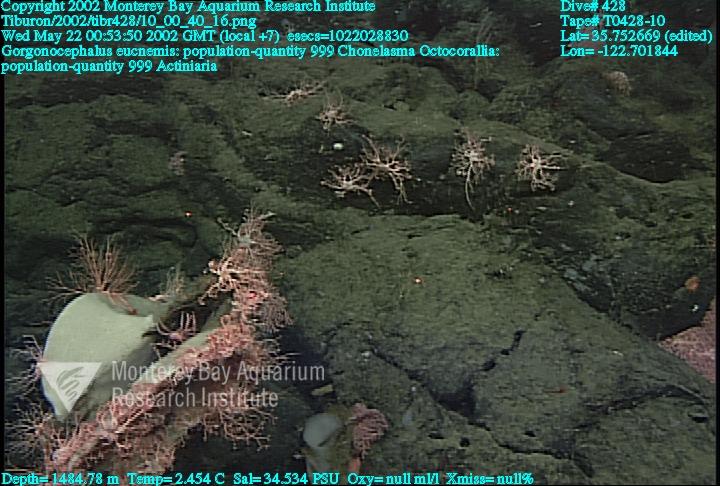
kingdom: Animalia
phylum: Porifera
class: Hexactinellida
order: Sceptrulophora
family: Euretidae
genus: Chonelasma
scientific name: Chonelasma
